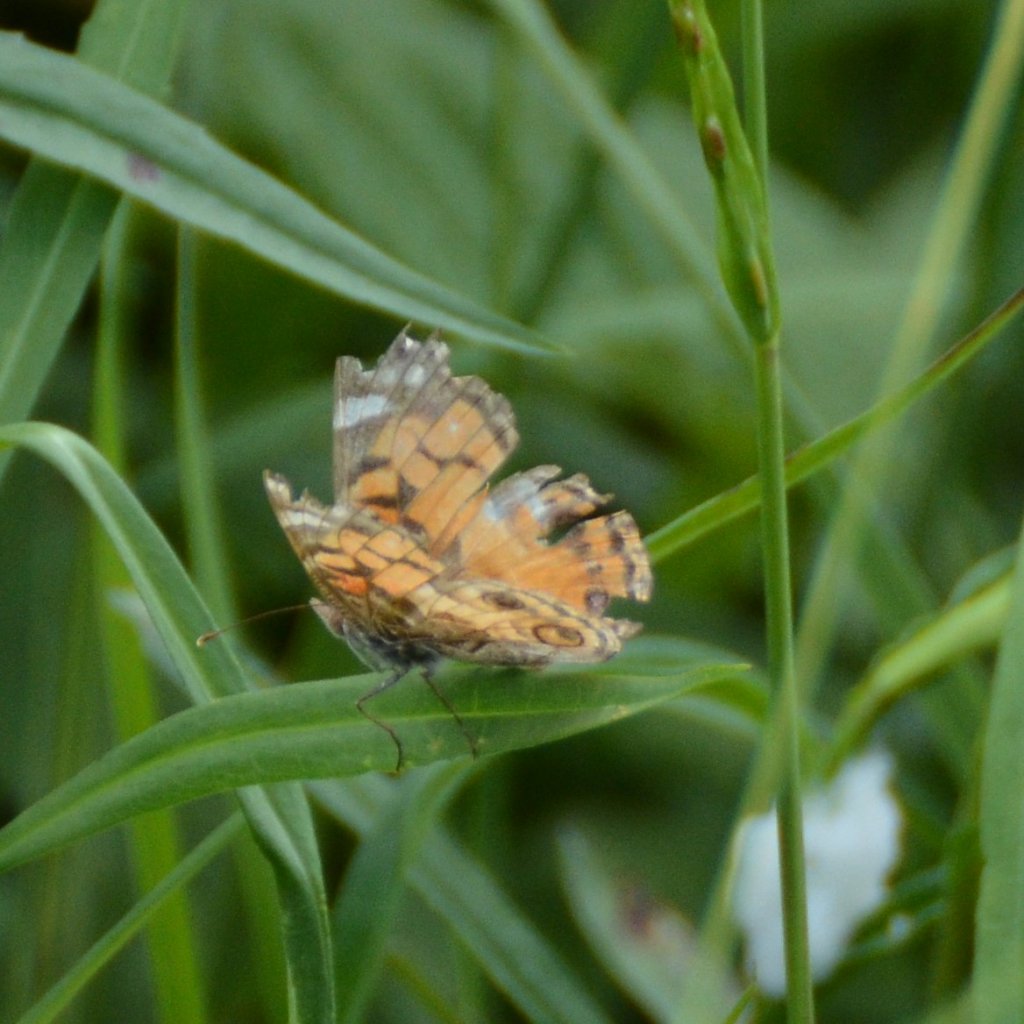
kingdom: Animalia
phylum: Arthropoda
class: Insecta
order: Lepidoptera
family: Nymphalidae
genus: Vanessa
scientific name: Vanessa virginiensis
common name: American Lady
